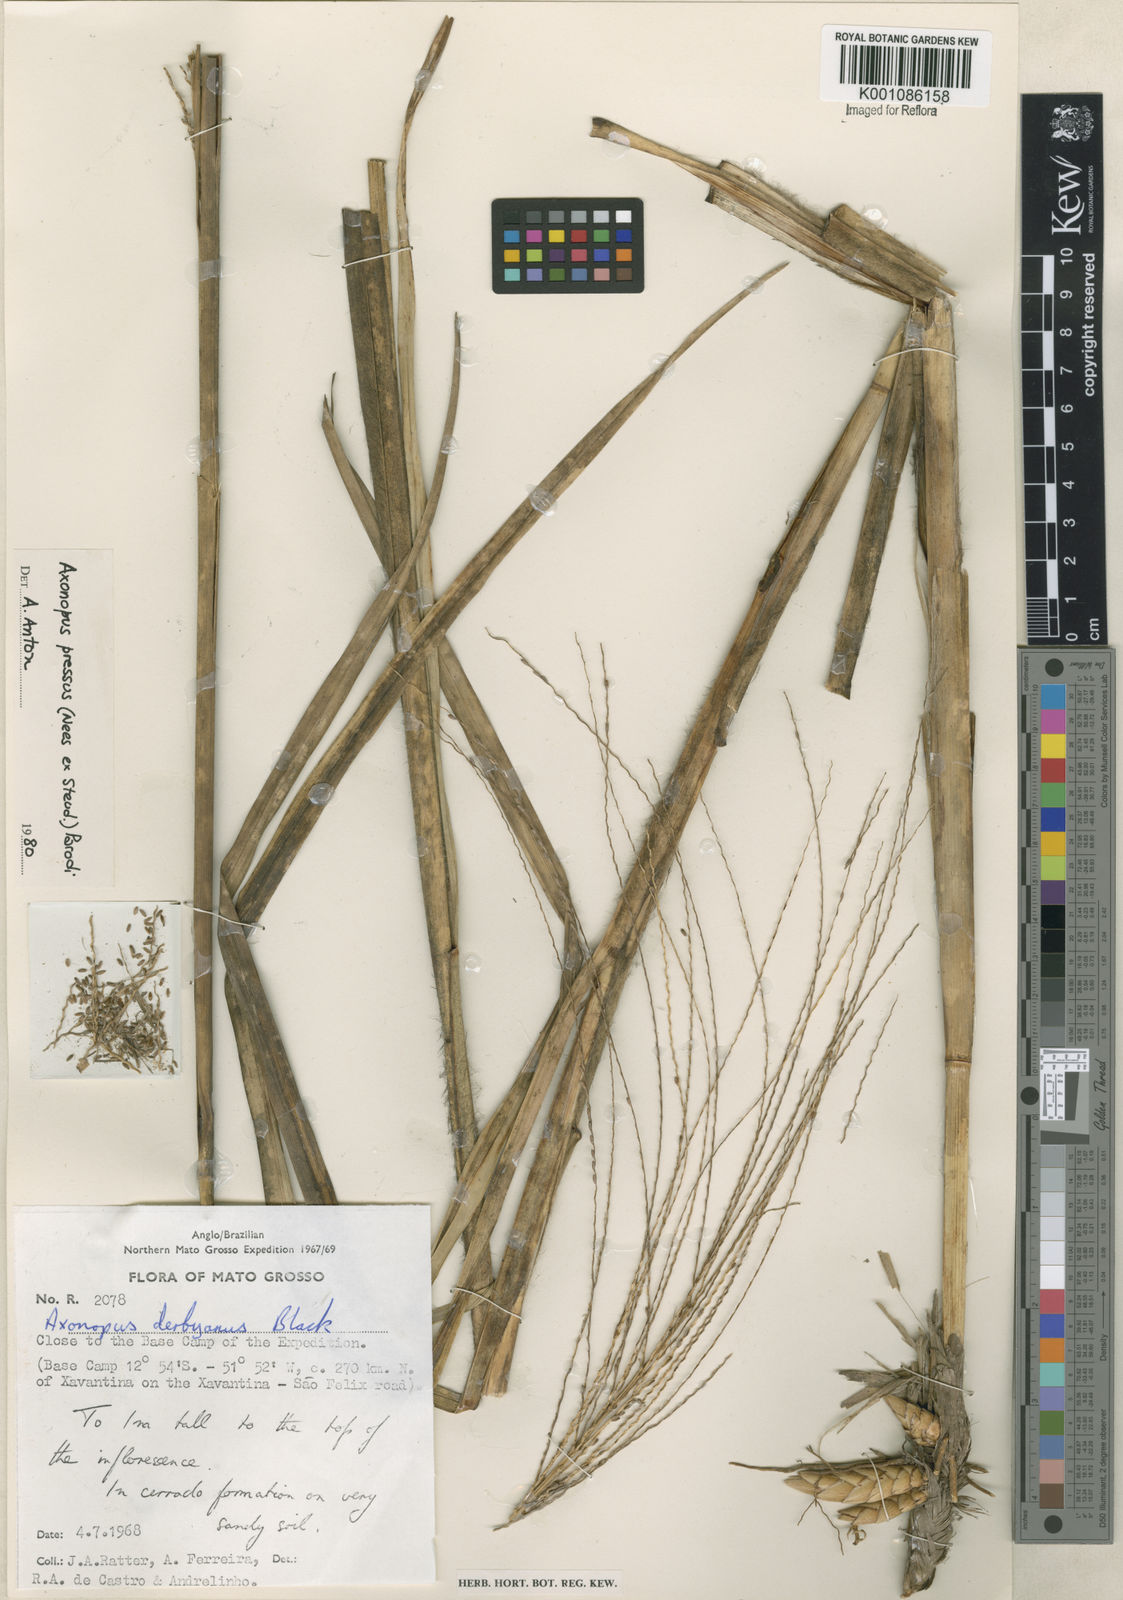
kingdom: Plantae
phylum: Tracheophyta
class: Liliopsida
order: Poales
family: Poaceae
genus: Axonopus
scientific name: Axonopus pressus
